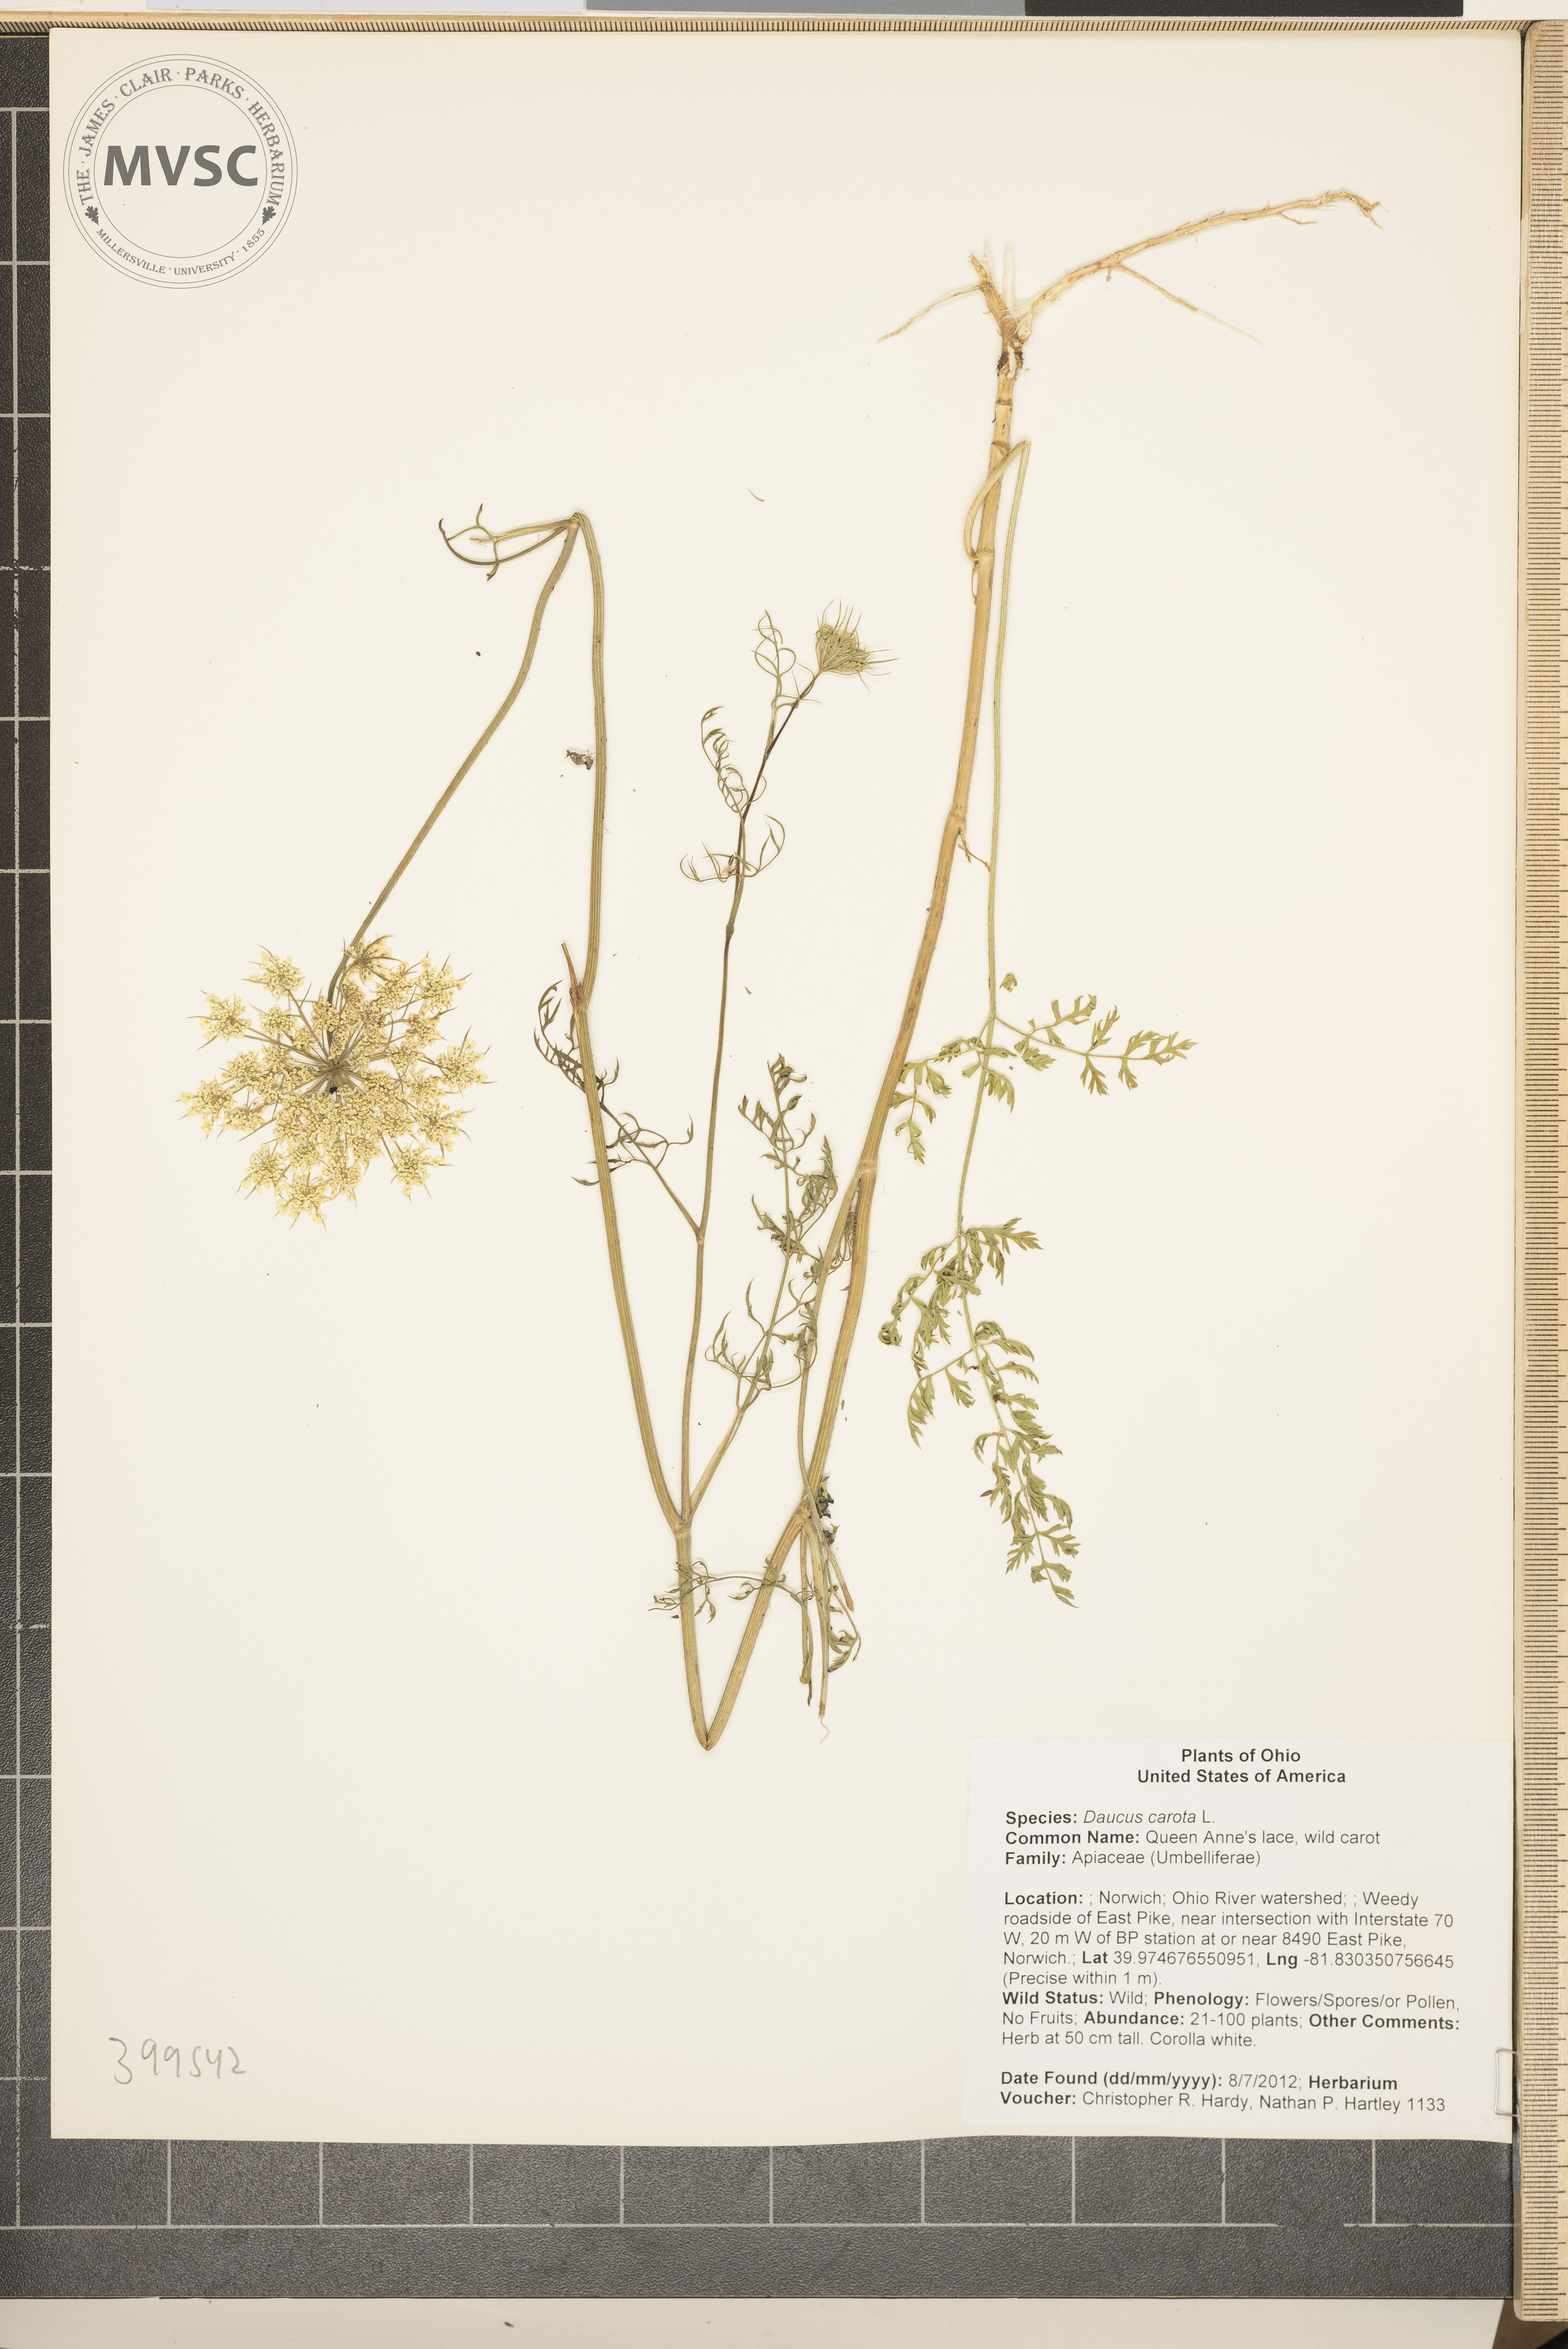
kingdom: Plantae
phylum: Tracheophyta
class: Magnoliopsida
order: Apiales
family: Apiaceae
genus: Daucus
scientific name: Daucus carota
